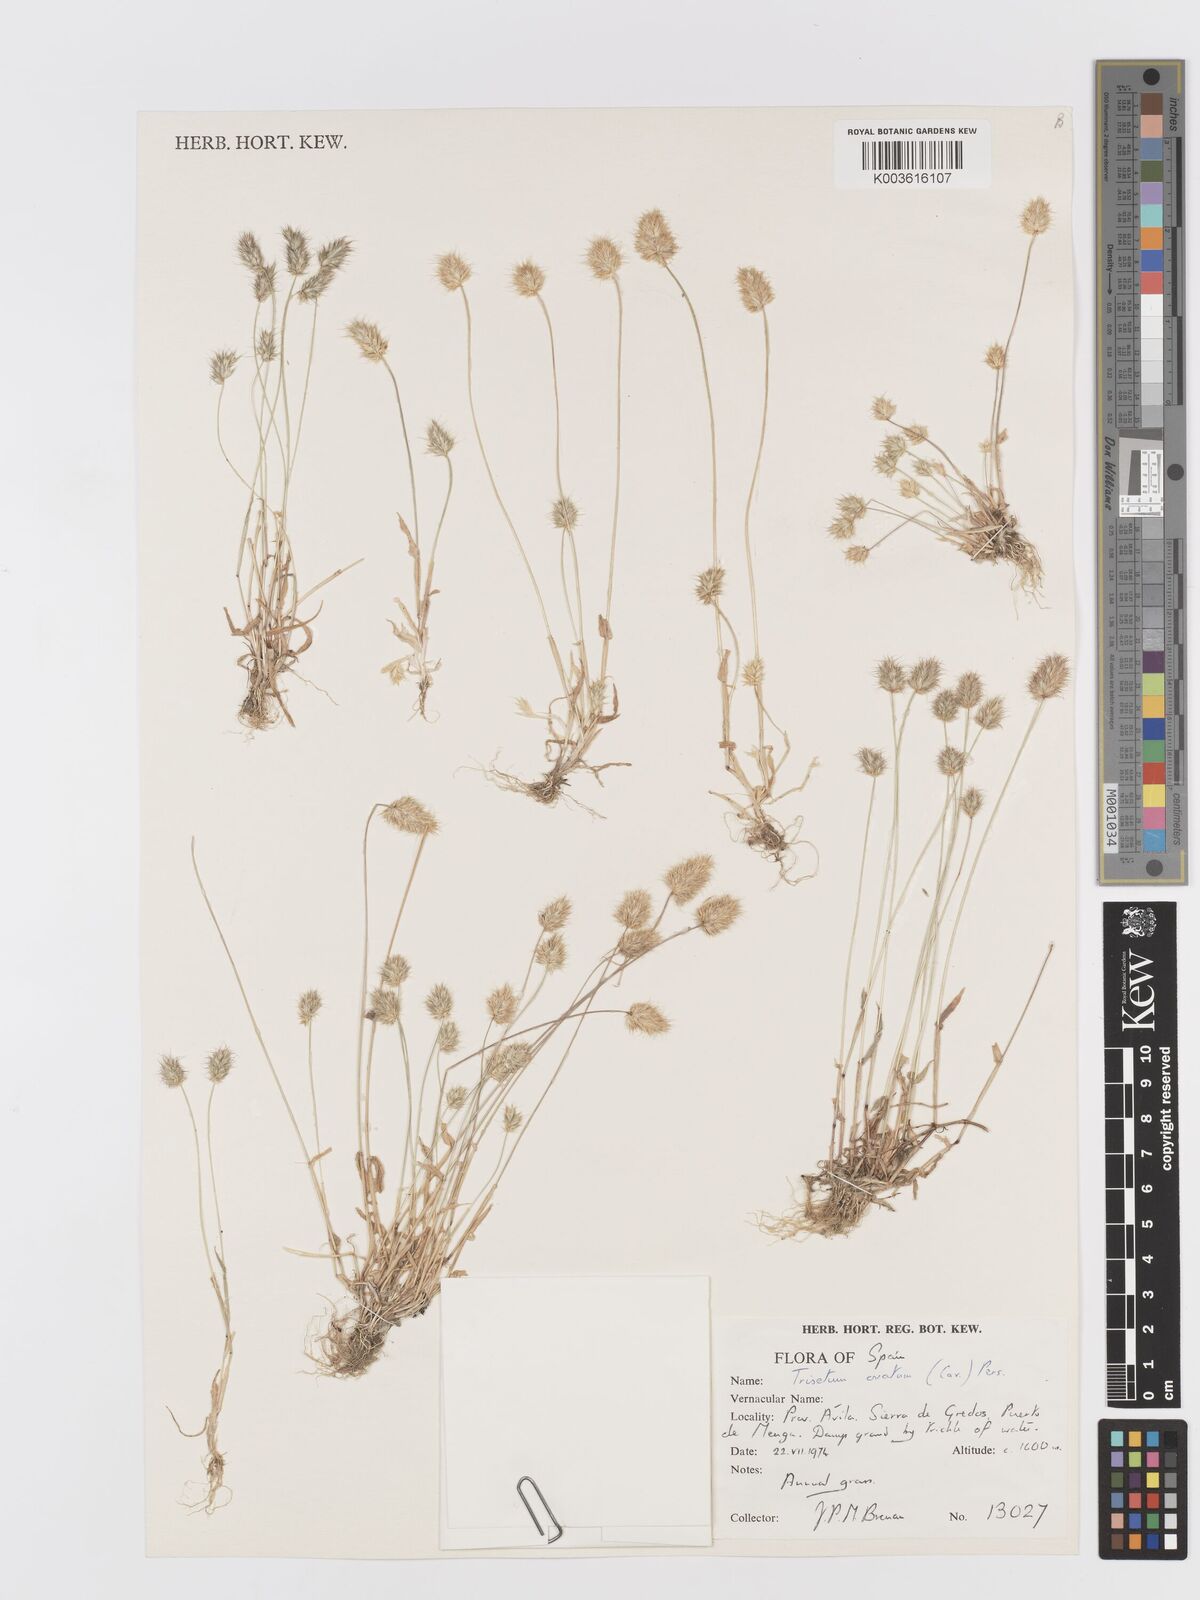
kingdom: Plantae
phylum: Tracheophyta
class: Liliopsida
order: Poales
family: Poaceae
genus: Trisetaria
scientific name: Trisetaria ovata
